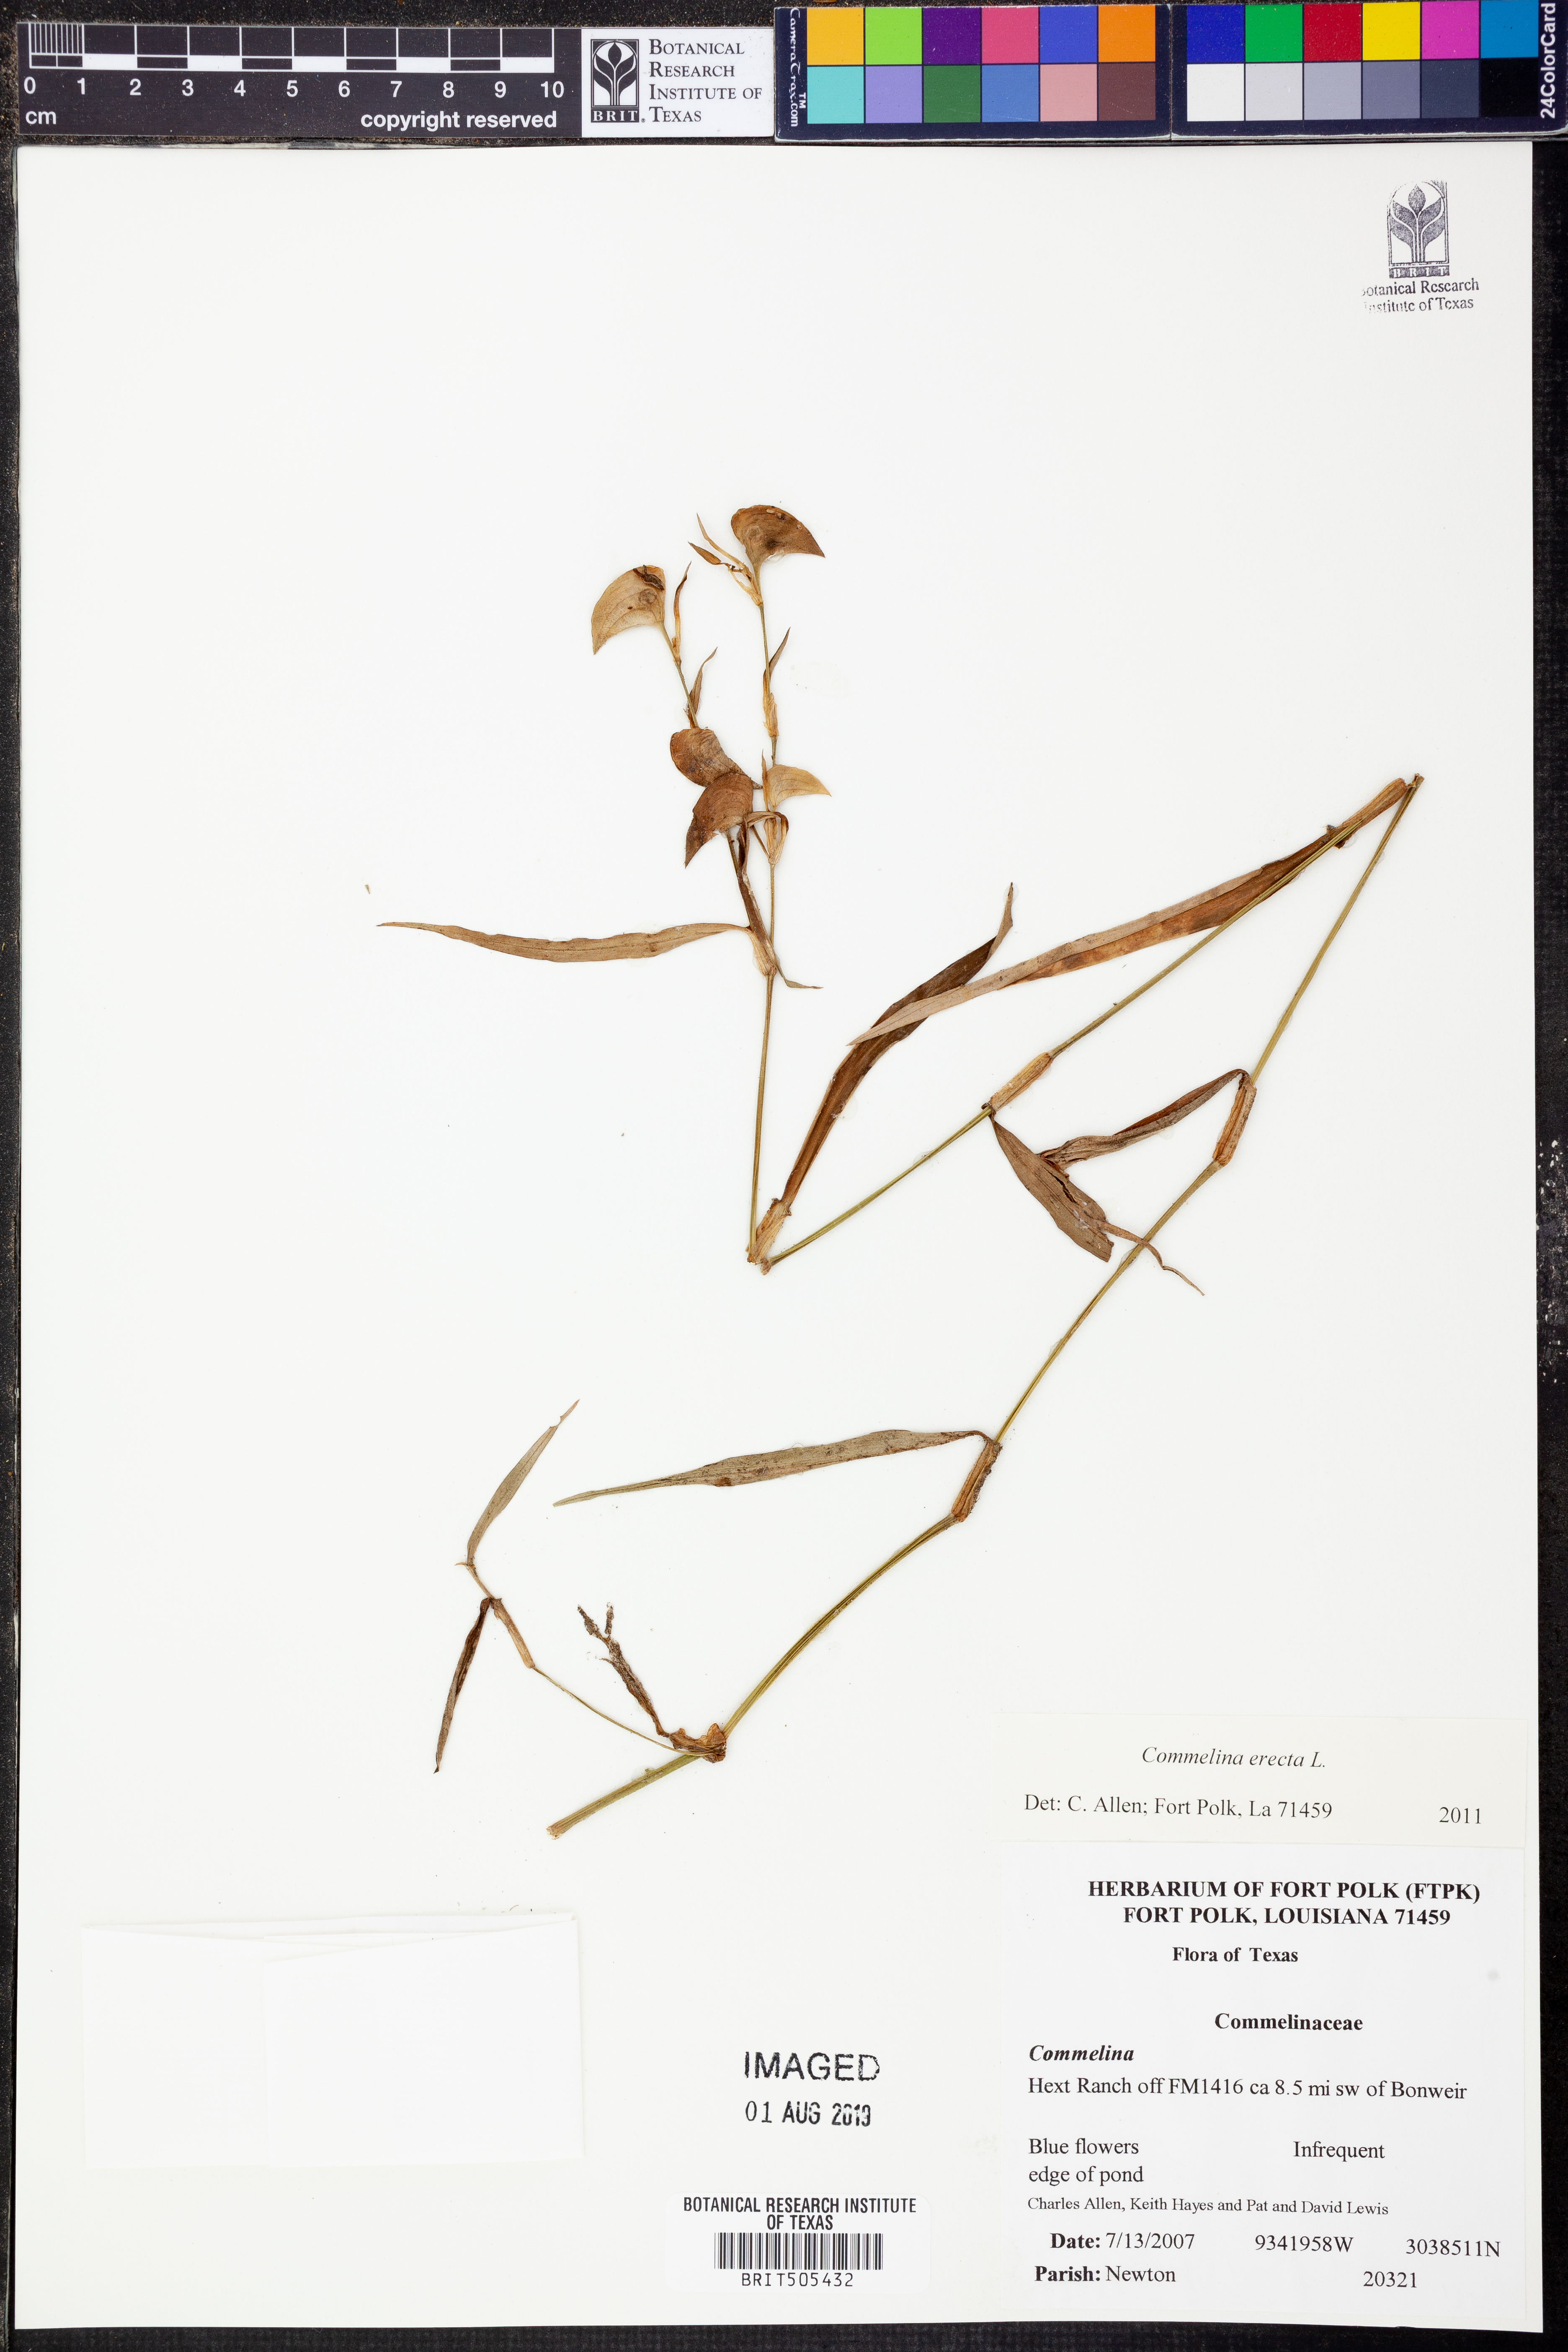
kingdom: Plantae
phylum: Tracheophyta
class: Liliopsida
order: Commelinales
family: Commelinaceae
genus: Commelina
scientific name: Commelina erecta
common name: Blousel blommetjie
